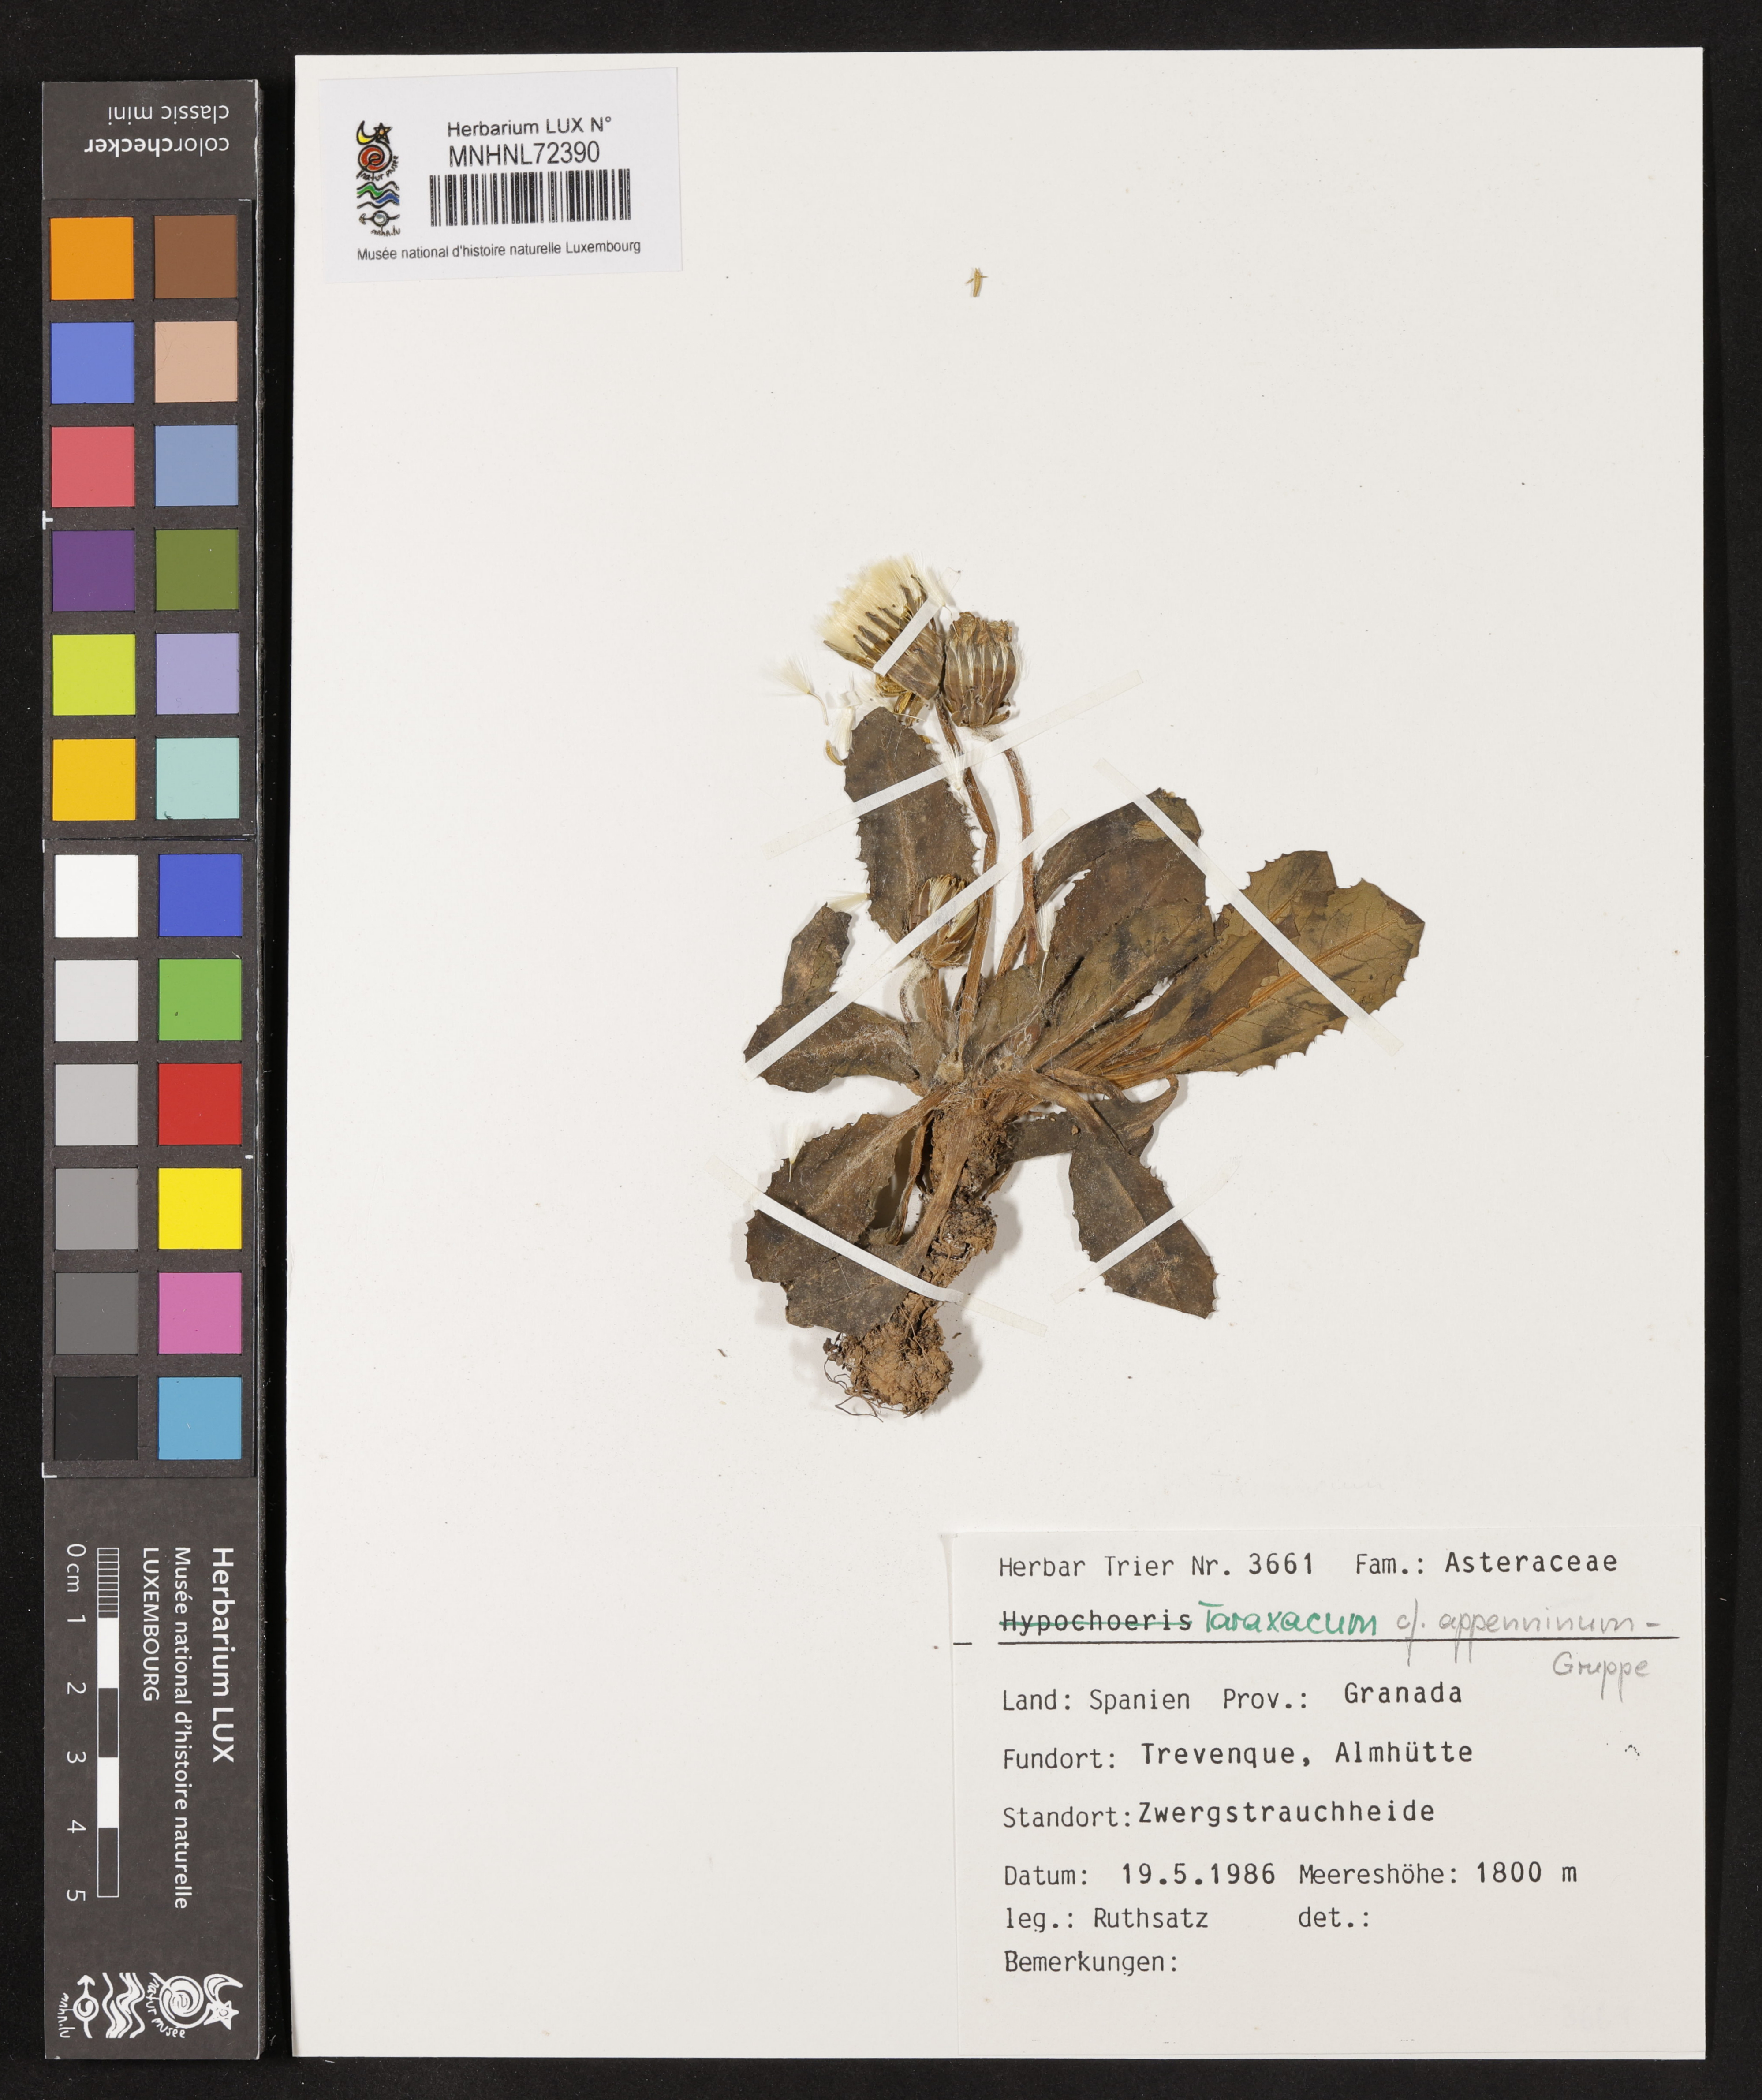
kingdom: Plantae
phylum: Tracheophyta
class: Magnoliopsida
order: Asterales
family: Asteraceae
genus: Taraxacum
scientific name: Taraxacum
